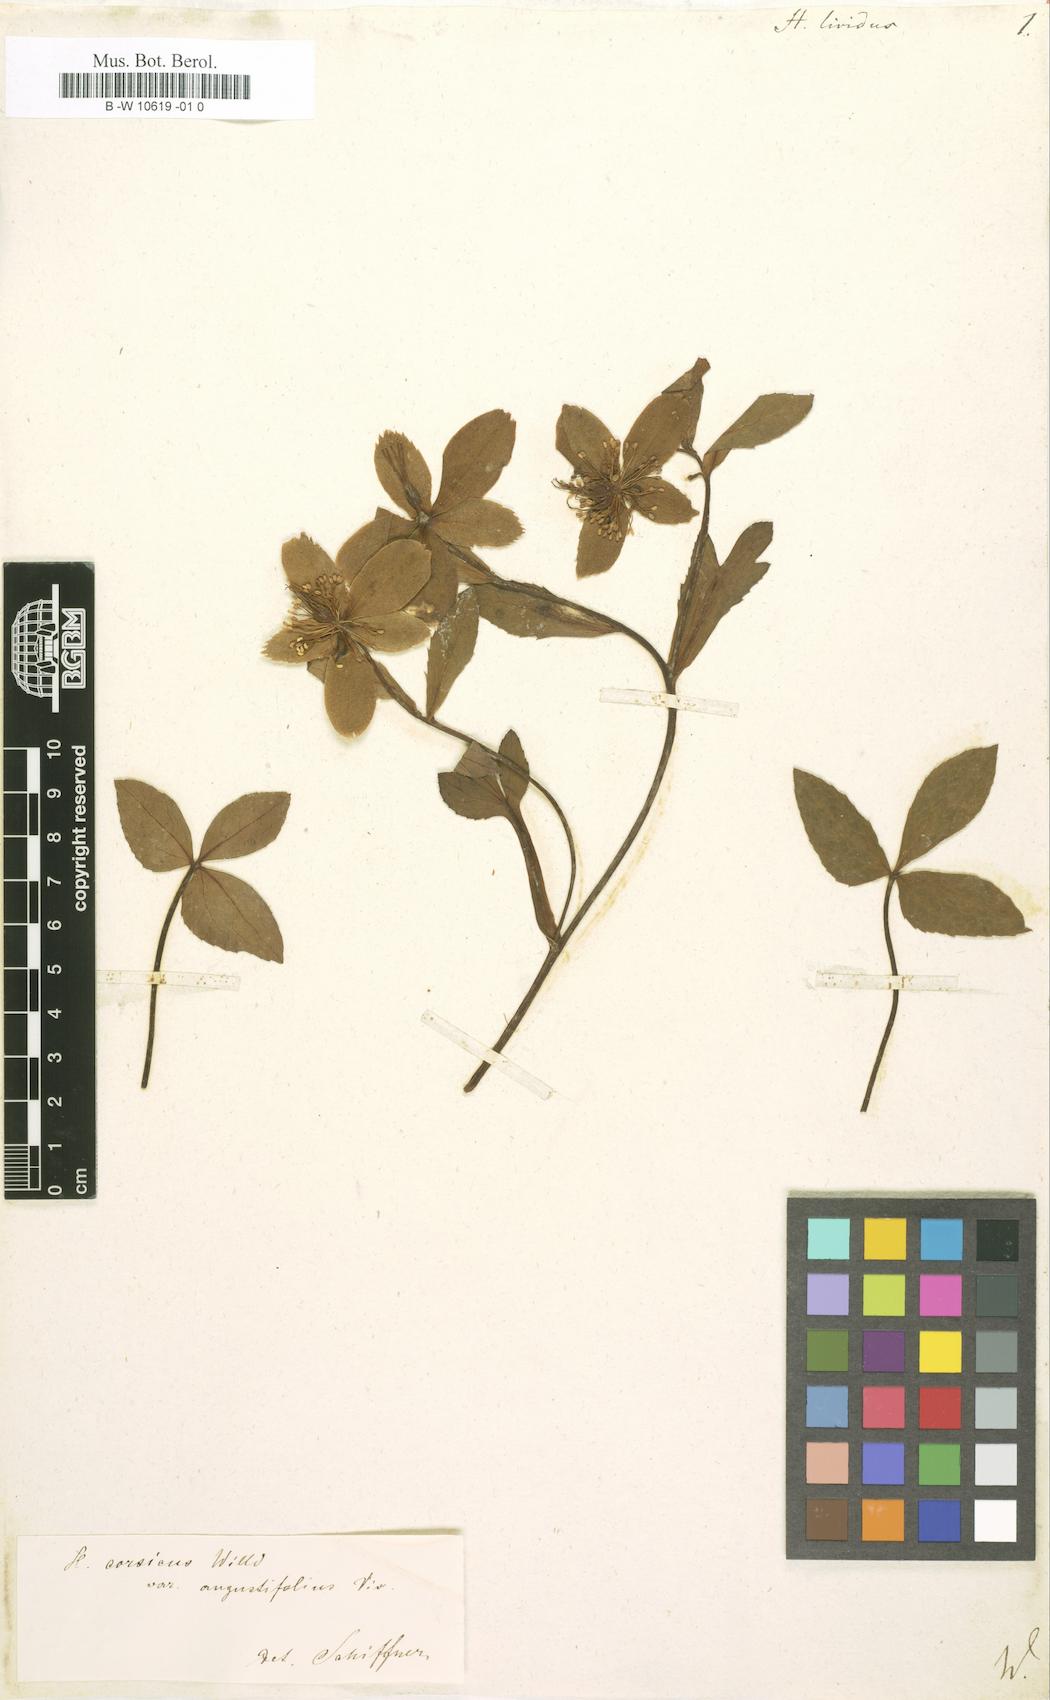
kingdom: Plantae
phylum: Tracheophyta
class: Magnoliopsida
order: Ranunculales
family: Ranunculaceae
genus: Helleborus
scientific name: Helleborus lividus
